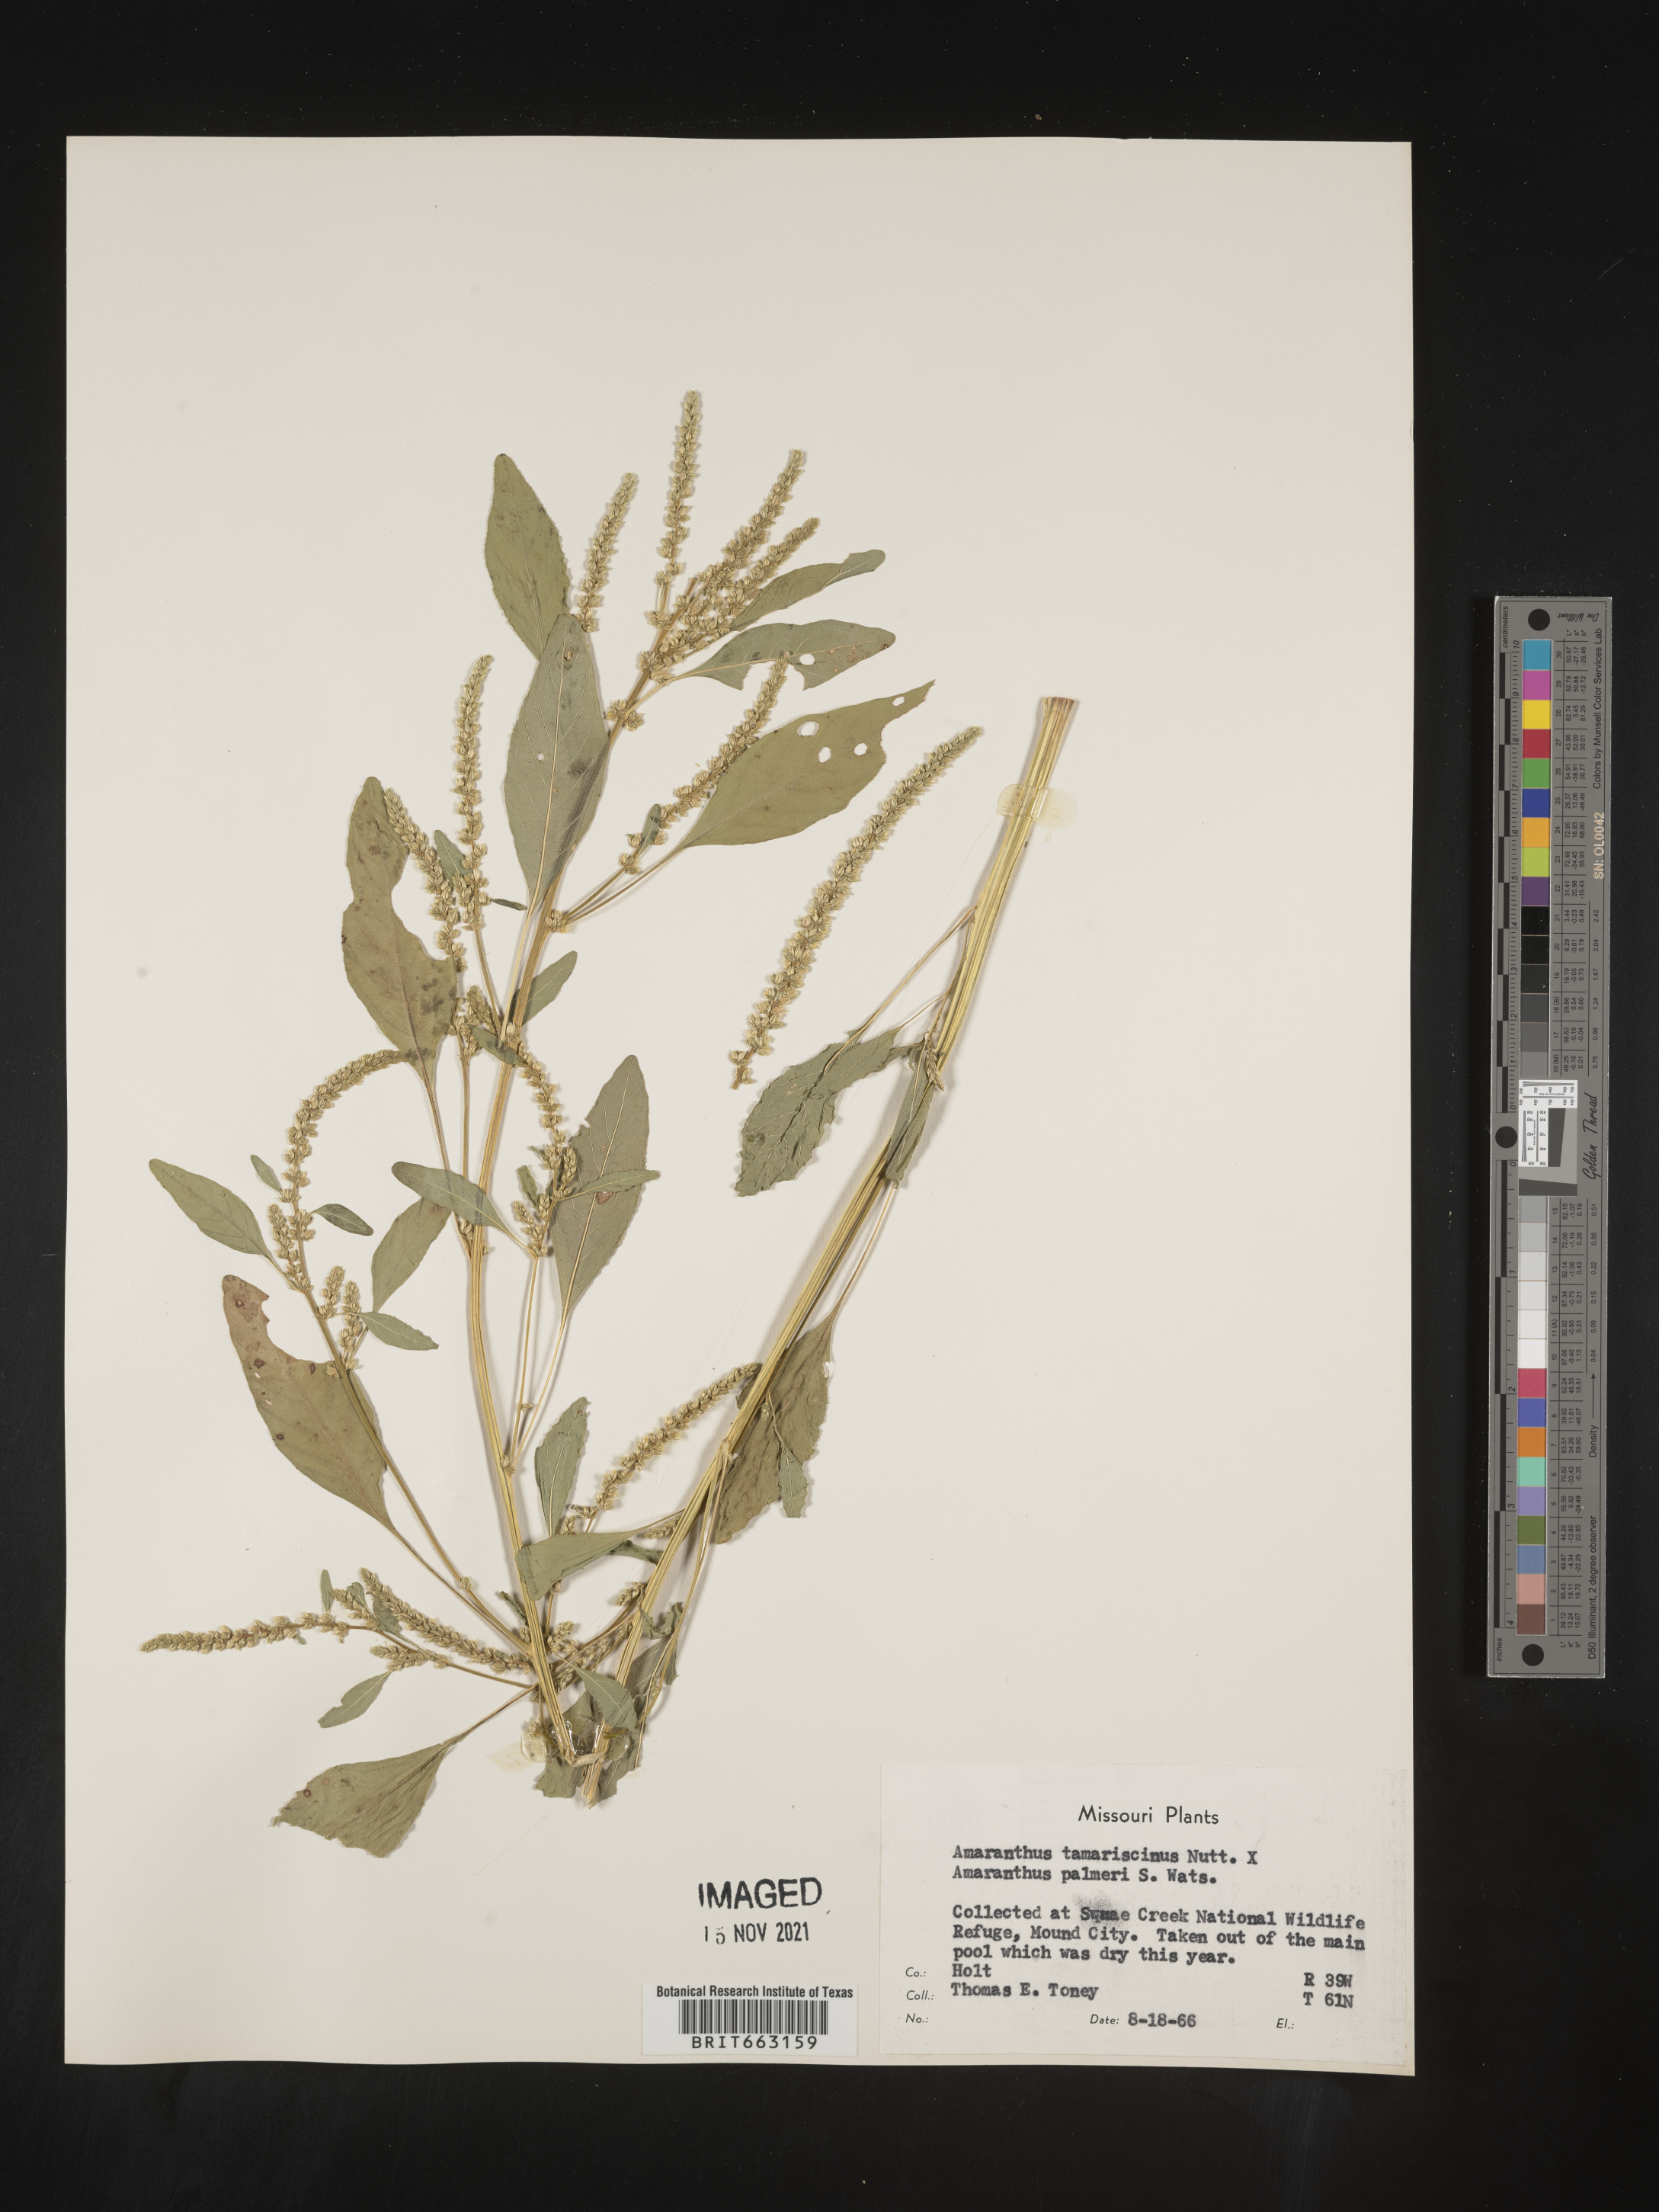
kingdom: Plantae
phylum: Tracheophyta
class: Magnoliopsida
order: Caryophyllales
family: Amaranthaceae
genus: Amaranthus
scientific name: Amaranthus tamariscinus
